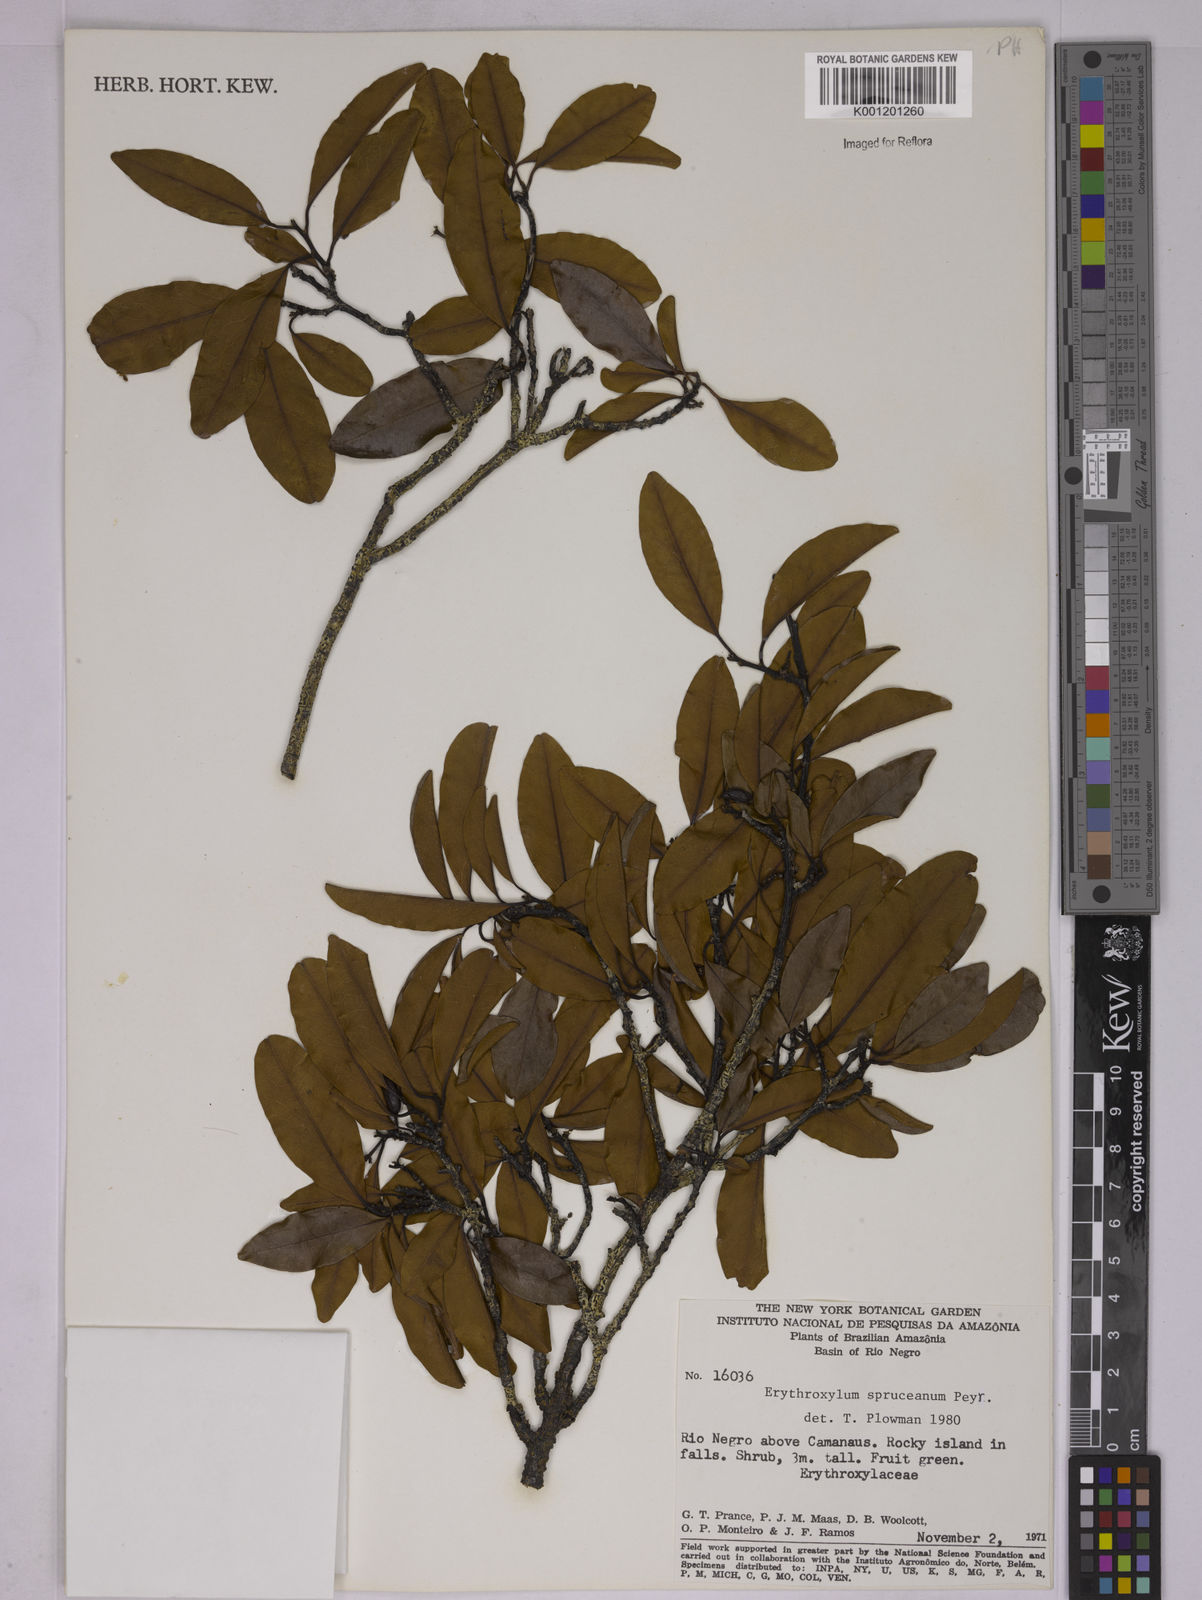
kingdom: Plantae
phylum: Tracheophyta
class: Magnoliopsida
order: Malpighiales
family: Erythroxylaceae
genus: Erythroxylum
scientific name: Erythroxylum spruceanum
